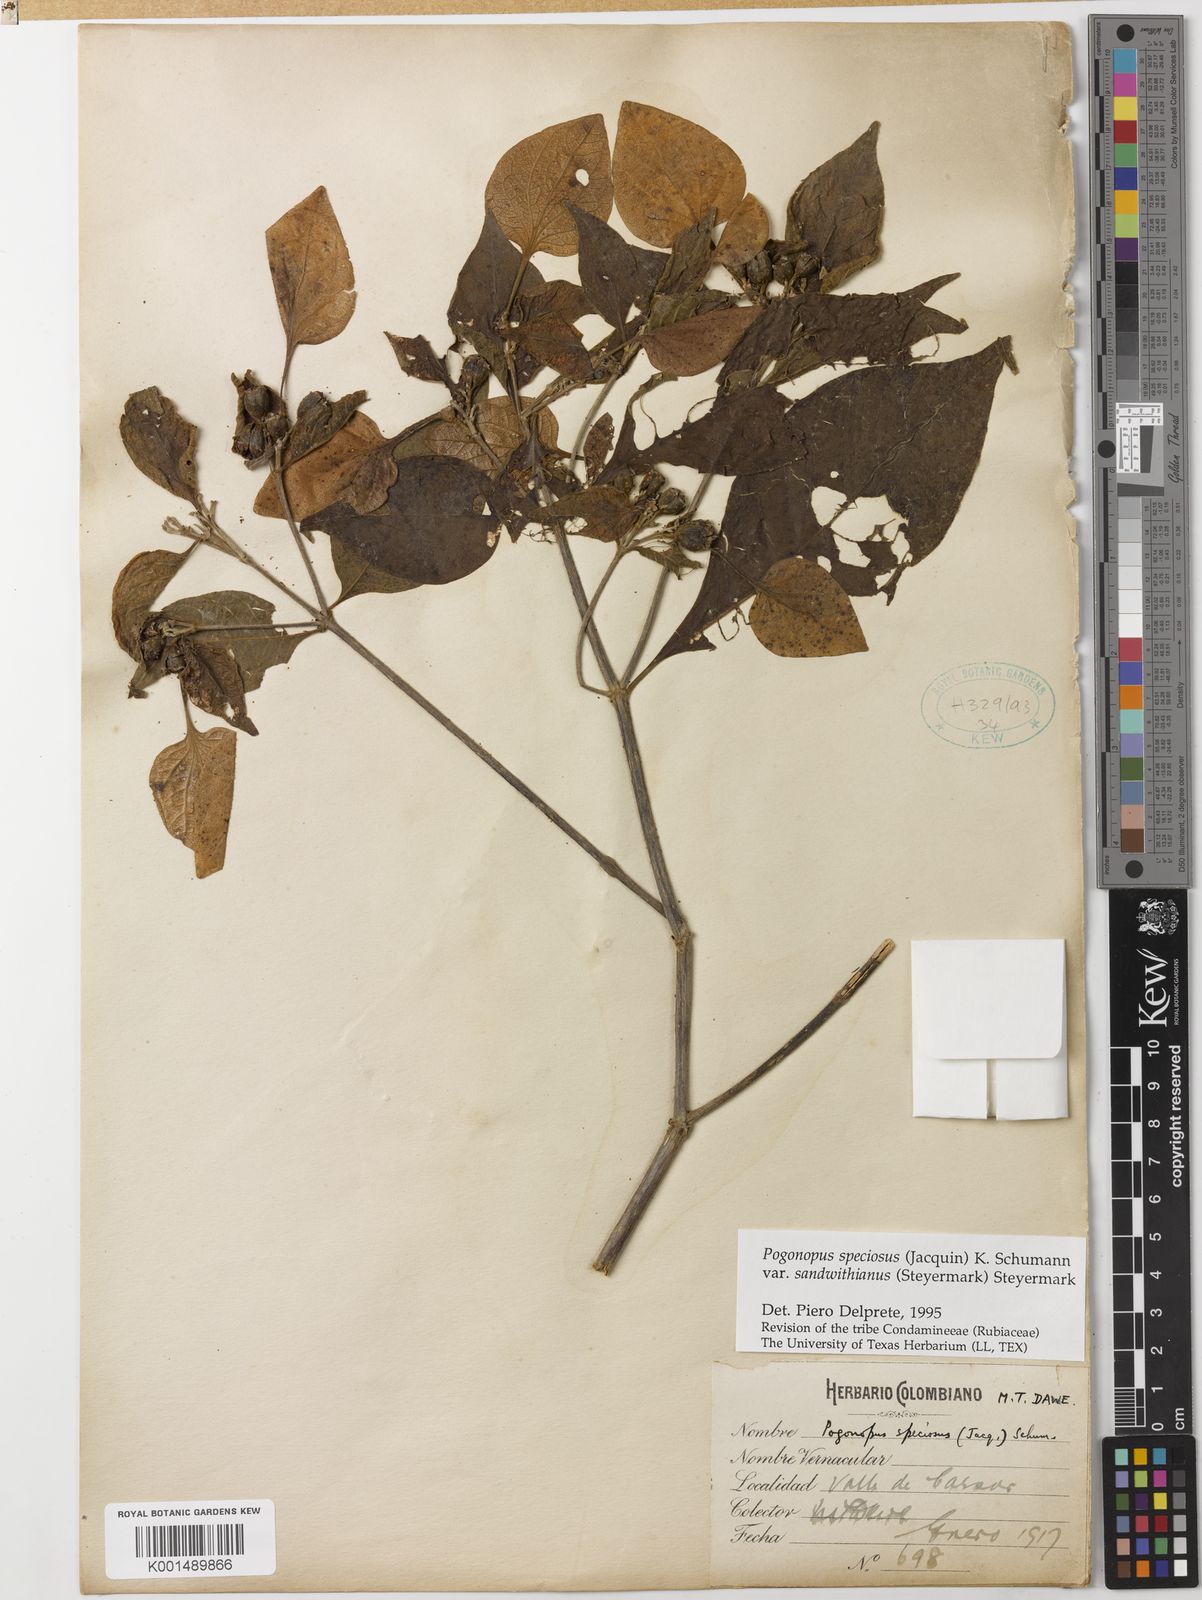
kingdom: Plantae
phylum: Tracheophyta
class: Magnoliopsida
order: Gentianales
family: Rubiaceae
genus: Pogonopus
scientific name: Pogonopus speciosus
